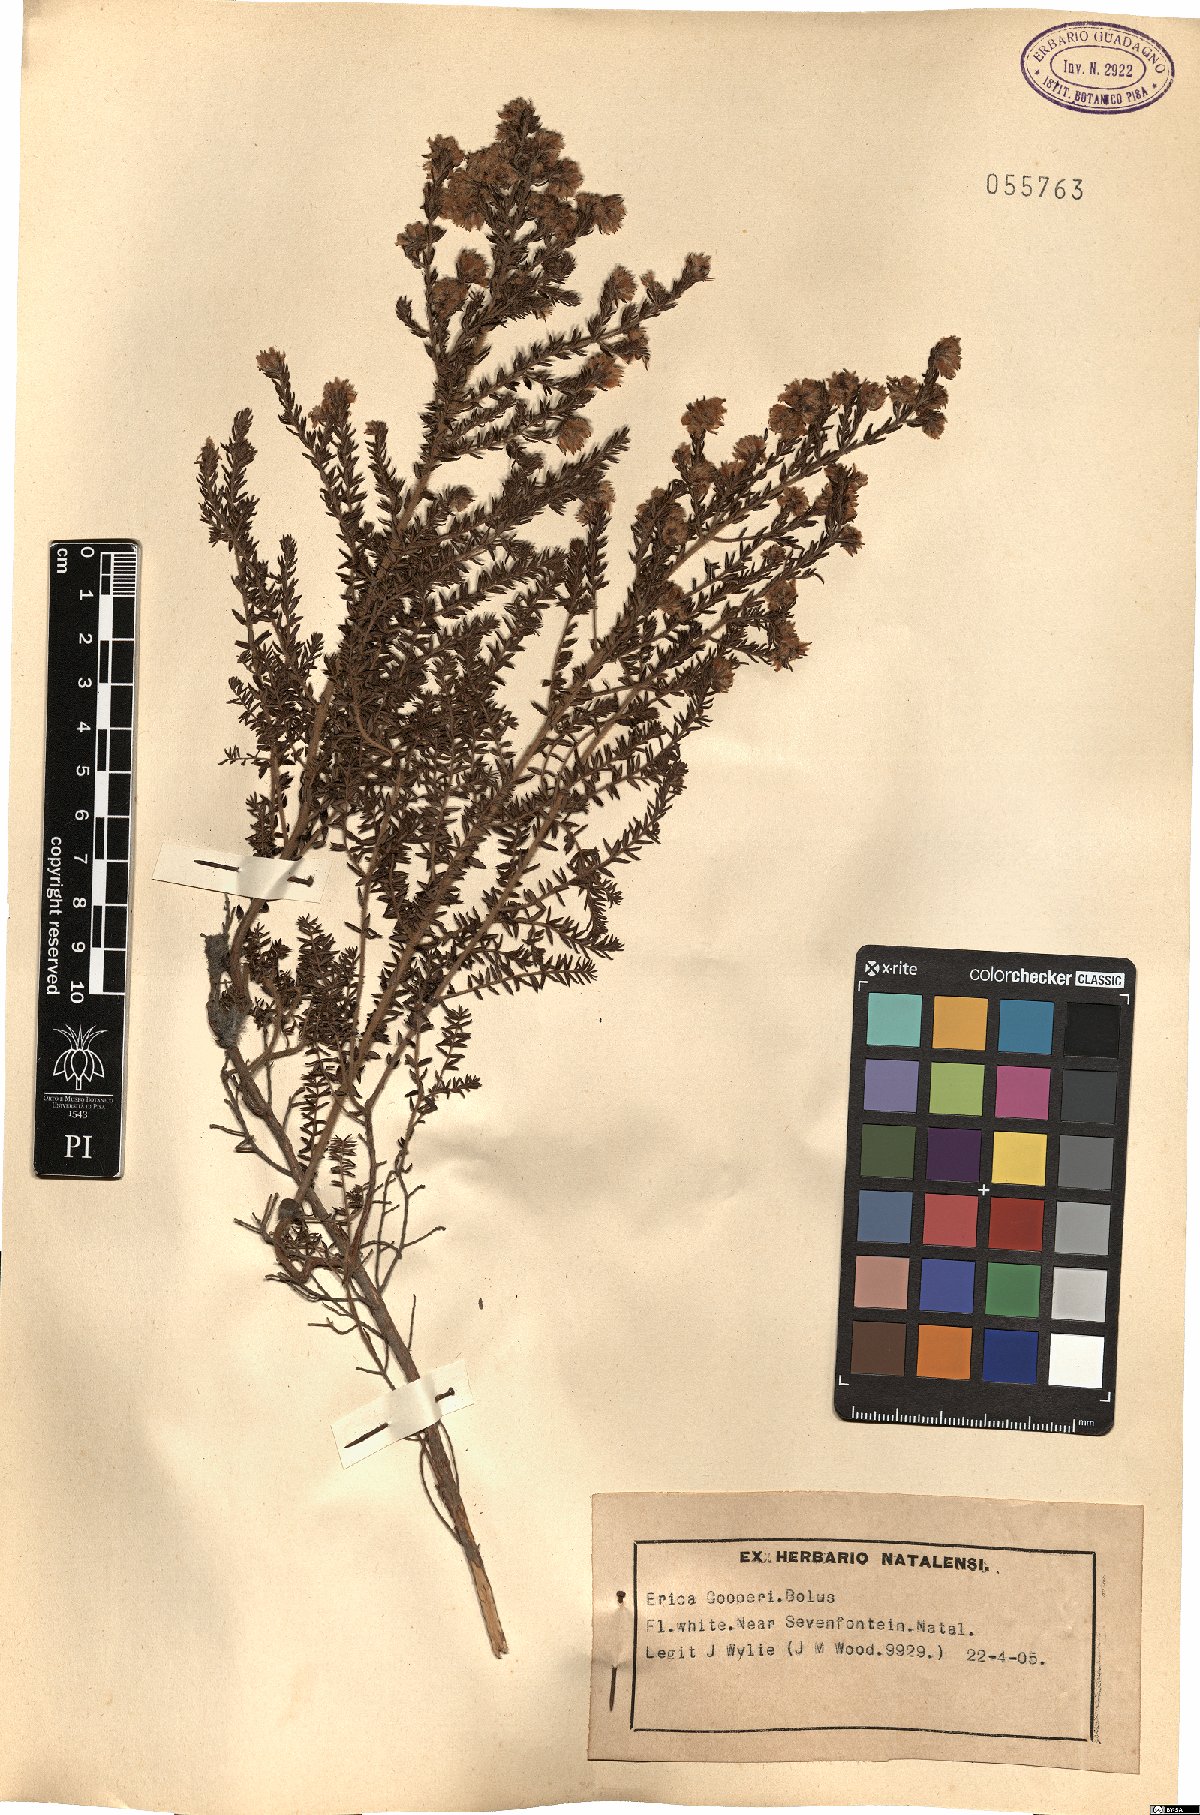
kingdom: Plantae
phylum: Tracheophyta
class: Magnoliopsida
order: Ericales
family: Ericaceae
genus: Erica
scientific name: Erica cooperi
